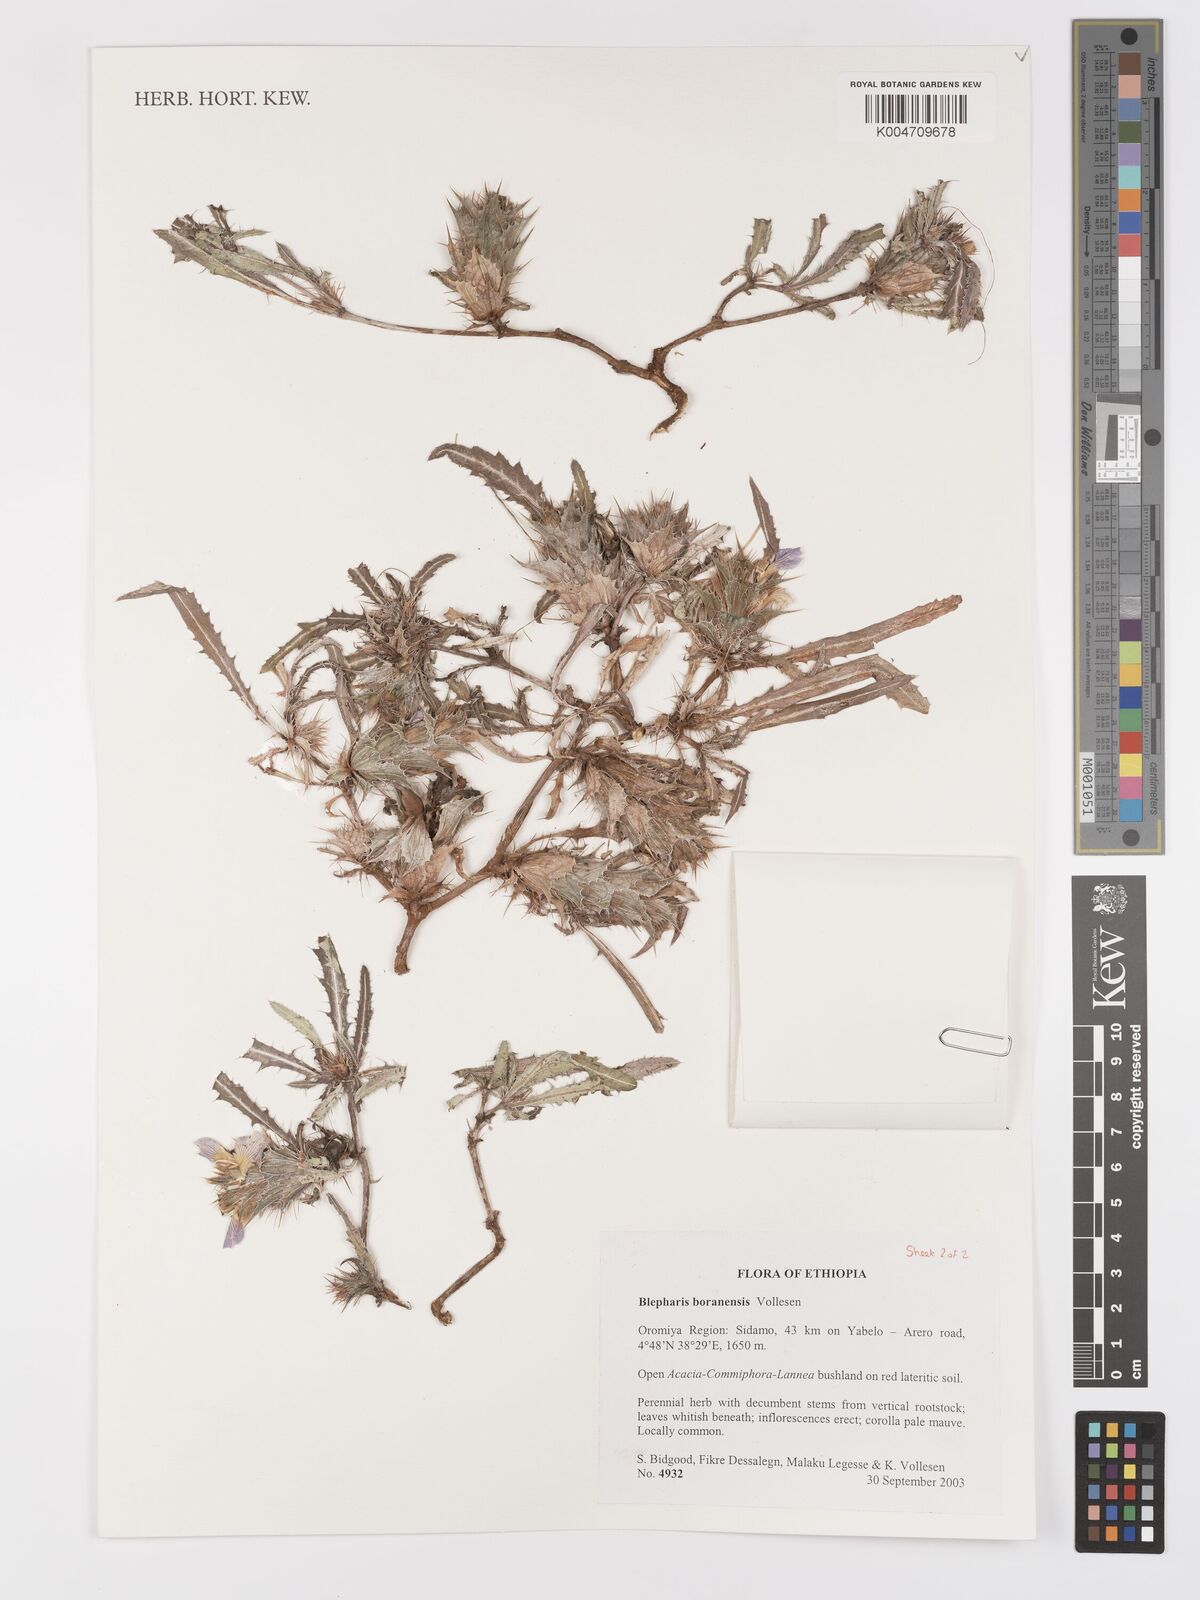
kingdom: Plantae
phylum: Tracheophyta
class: Magnoliopsida
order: Lamiales
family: Acanthaceae
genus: Blepharis
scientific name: Blepharis boranensis
